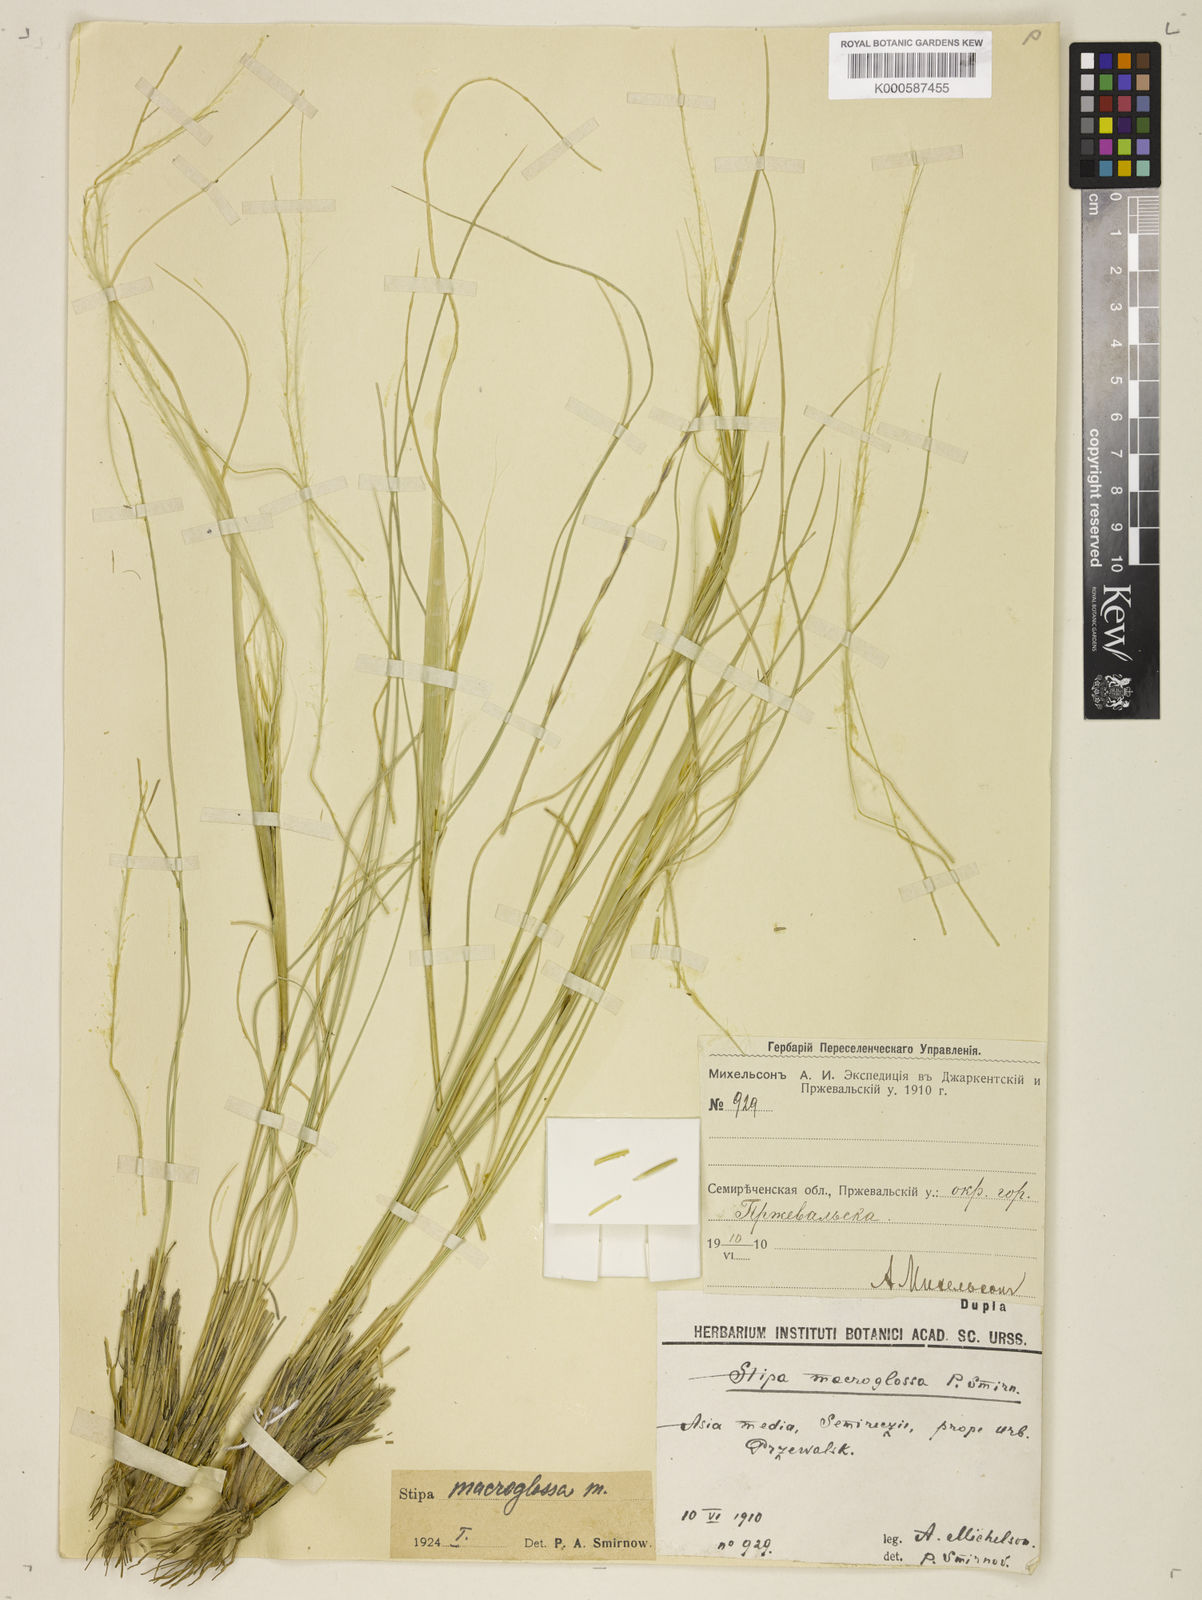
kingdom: Plantae
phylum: Tracheophyta
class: Liliopsida
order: Poales
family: Poaceae
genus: Stipa
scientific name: Stipa macroglossa
